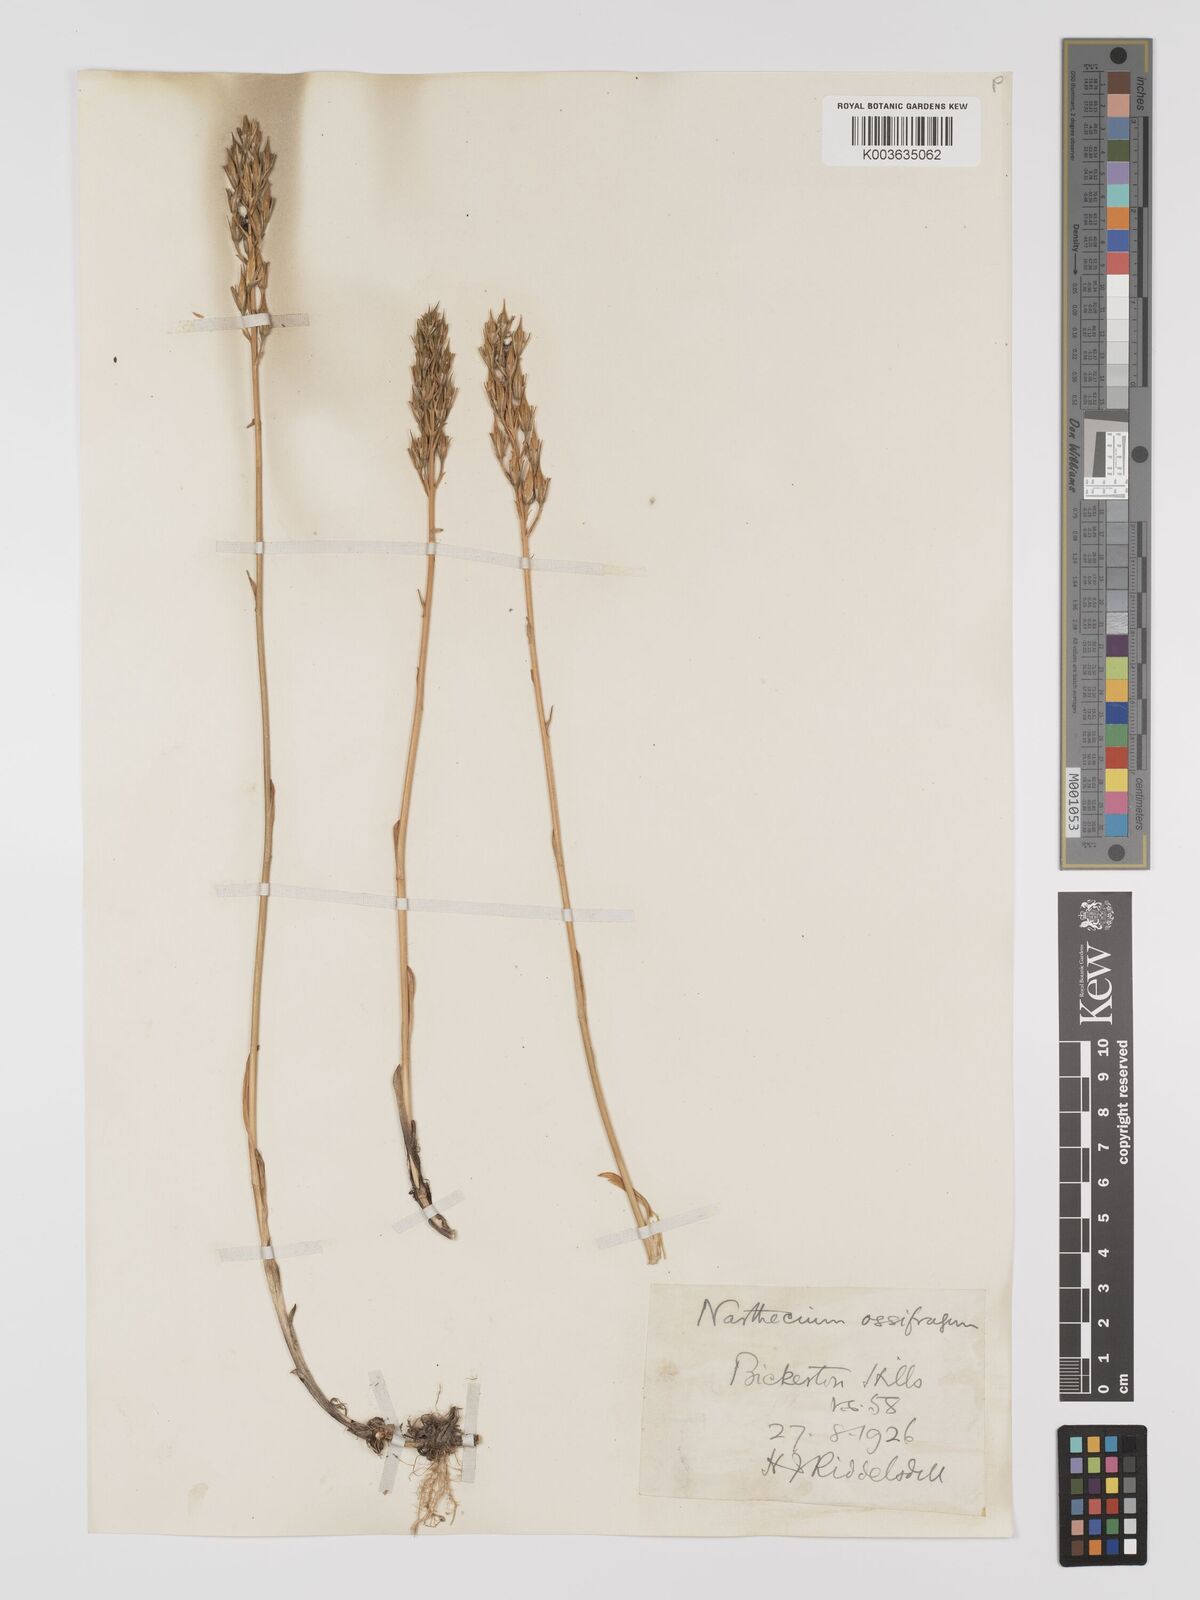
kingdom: Plantae
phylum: Tracheophyta
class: Liliopsida
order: Dioscoreales
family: Nartheciaceae
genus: Narthecium
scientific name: Narthecium
